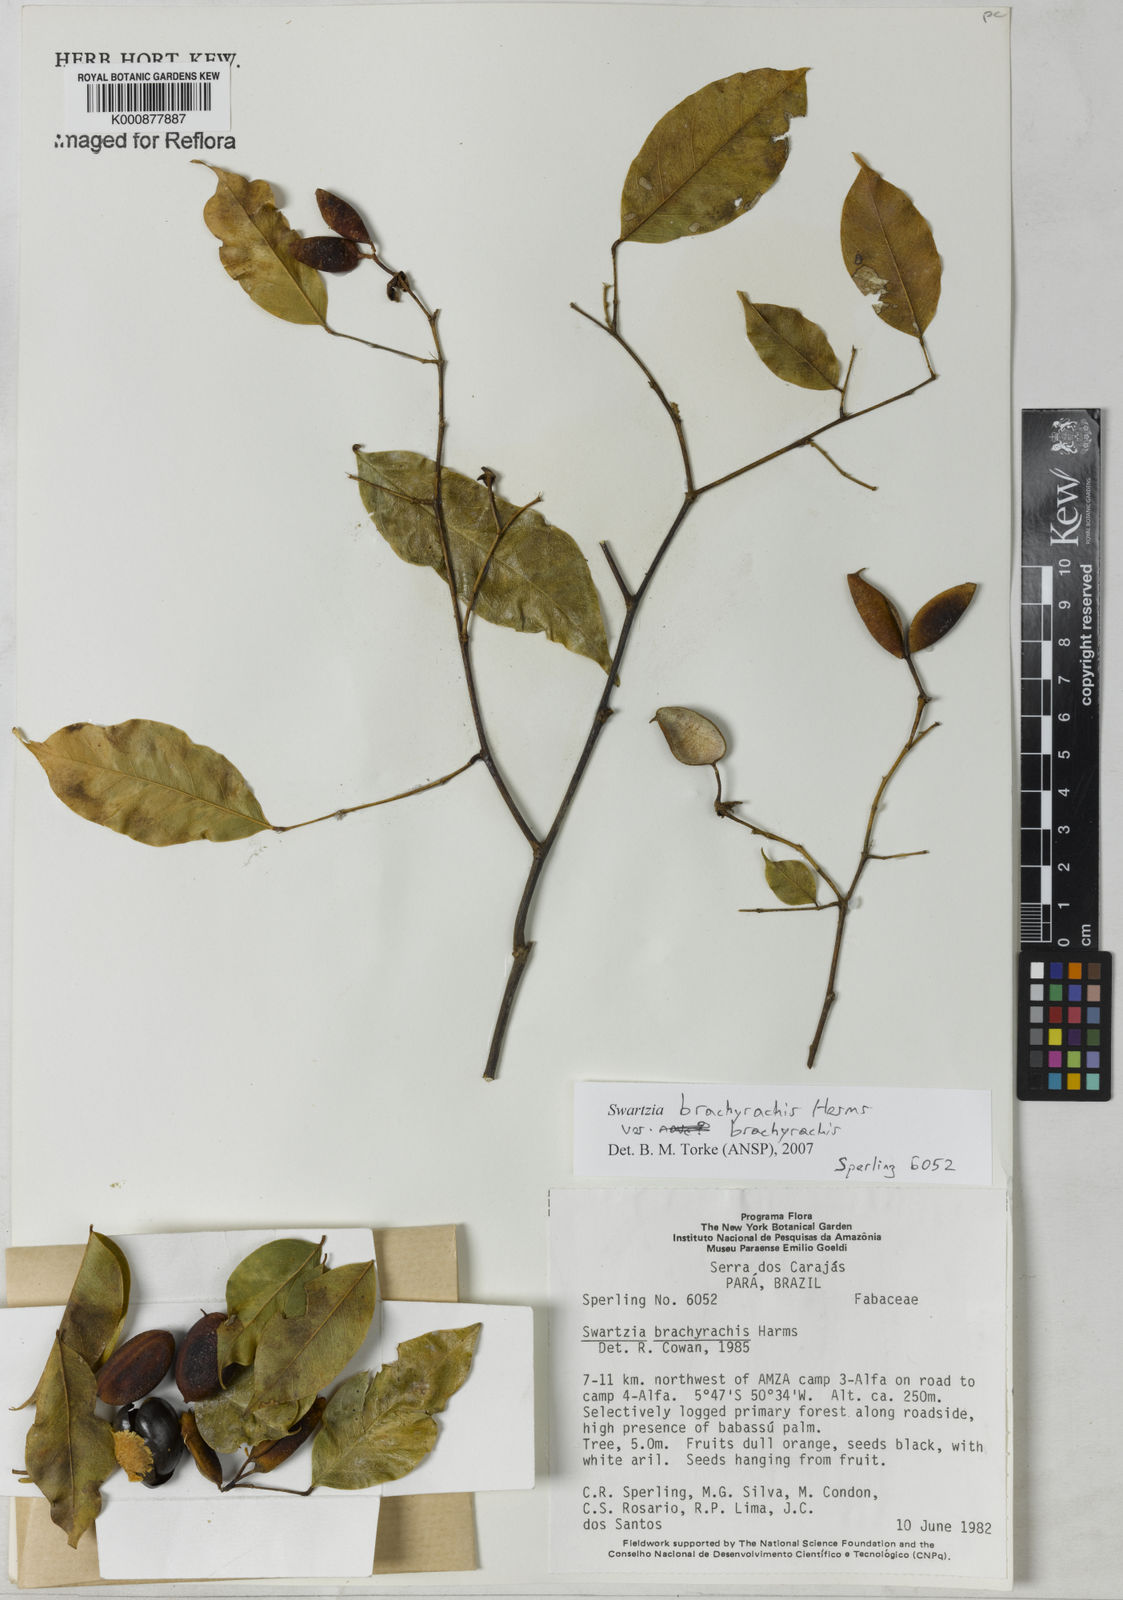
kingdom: Plantae
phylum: Tracheophyta
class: Magnoliopsida
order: Fabales
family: Fabaceae
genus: Swartzia
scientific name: Swartzia
